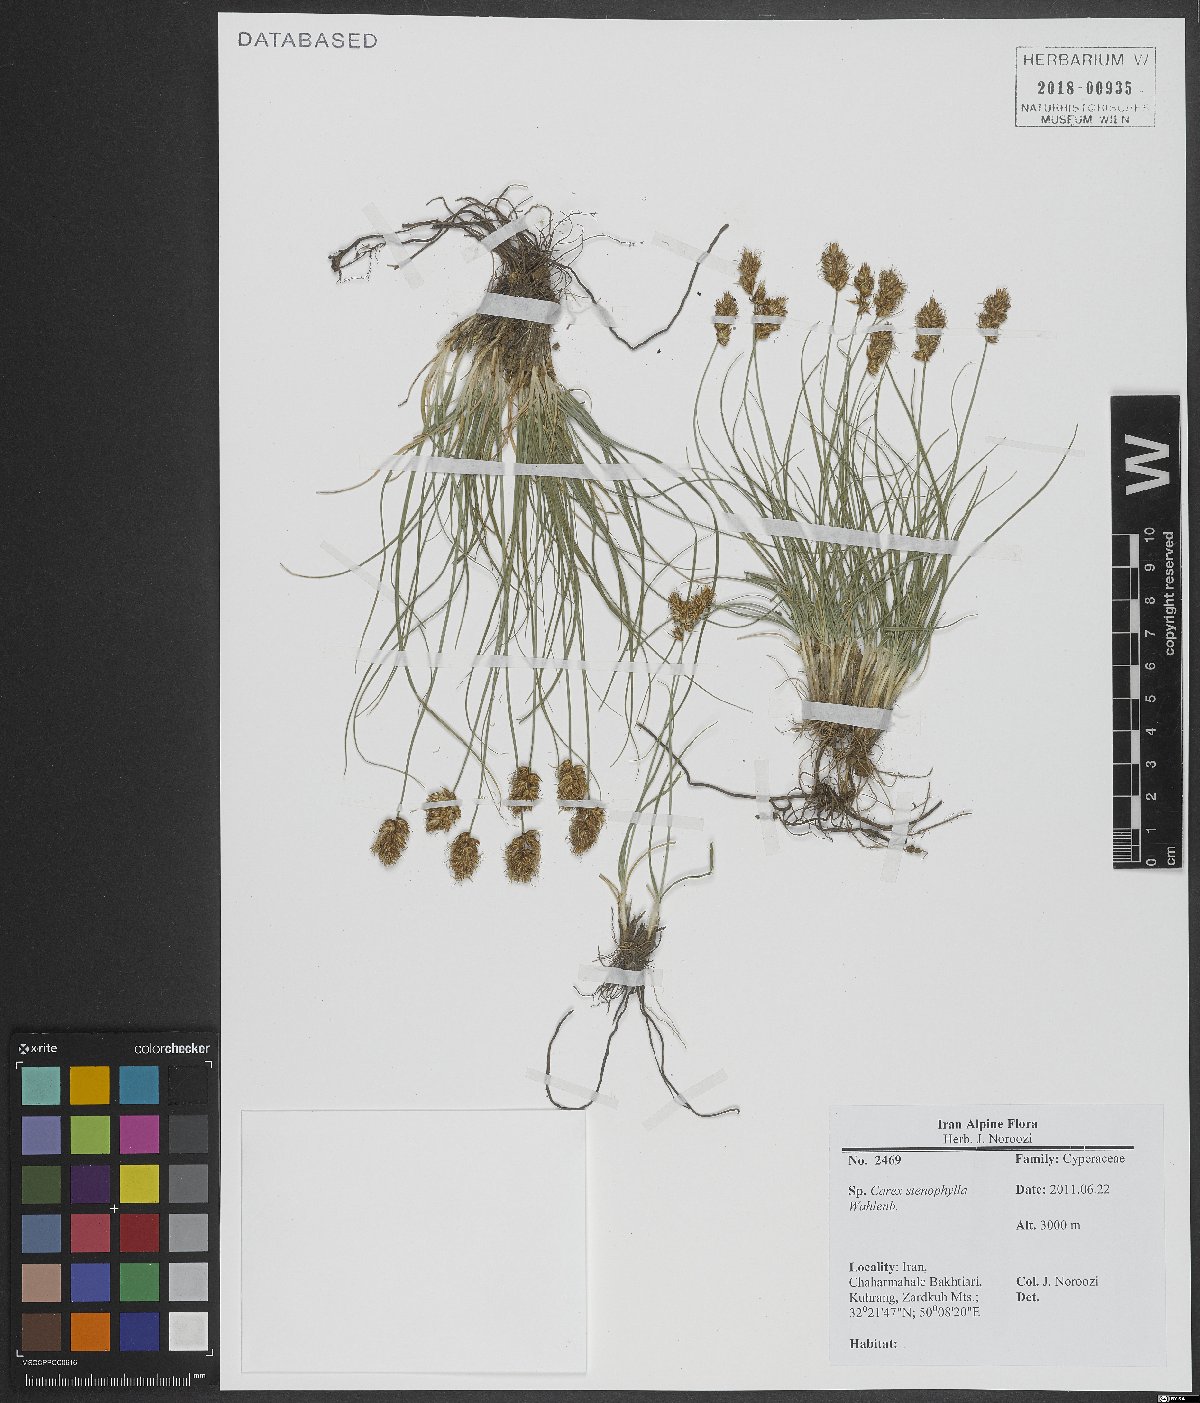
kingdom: Plantae
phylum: Tracheophyta
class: Liliopsida
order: Poales
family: Cyperaceae
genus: Carex
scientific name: Carex stenophylla
